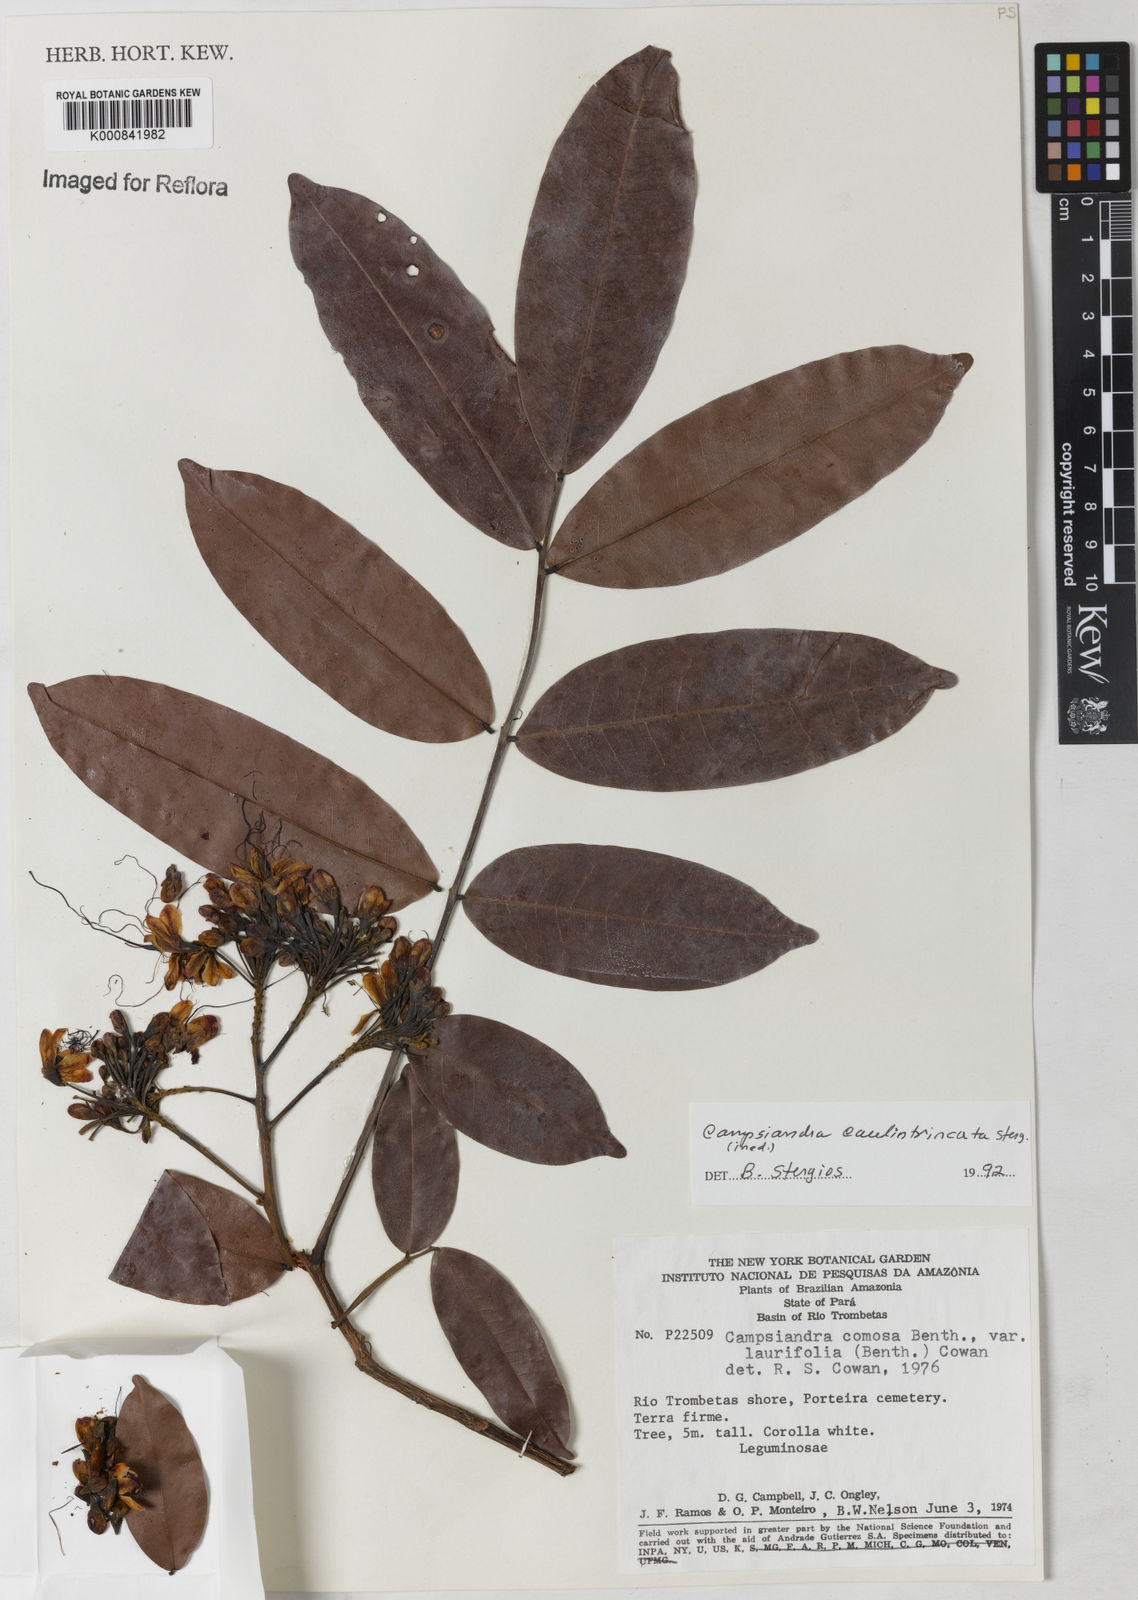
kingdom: Plantae
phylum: Tracheophyta
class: Magnoliopsida
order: Fabales
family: Fabaceae
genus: Campsiandra
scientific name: Campsiandra
